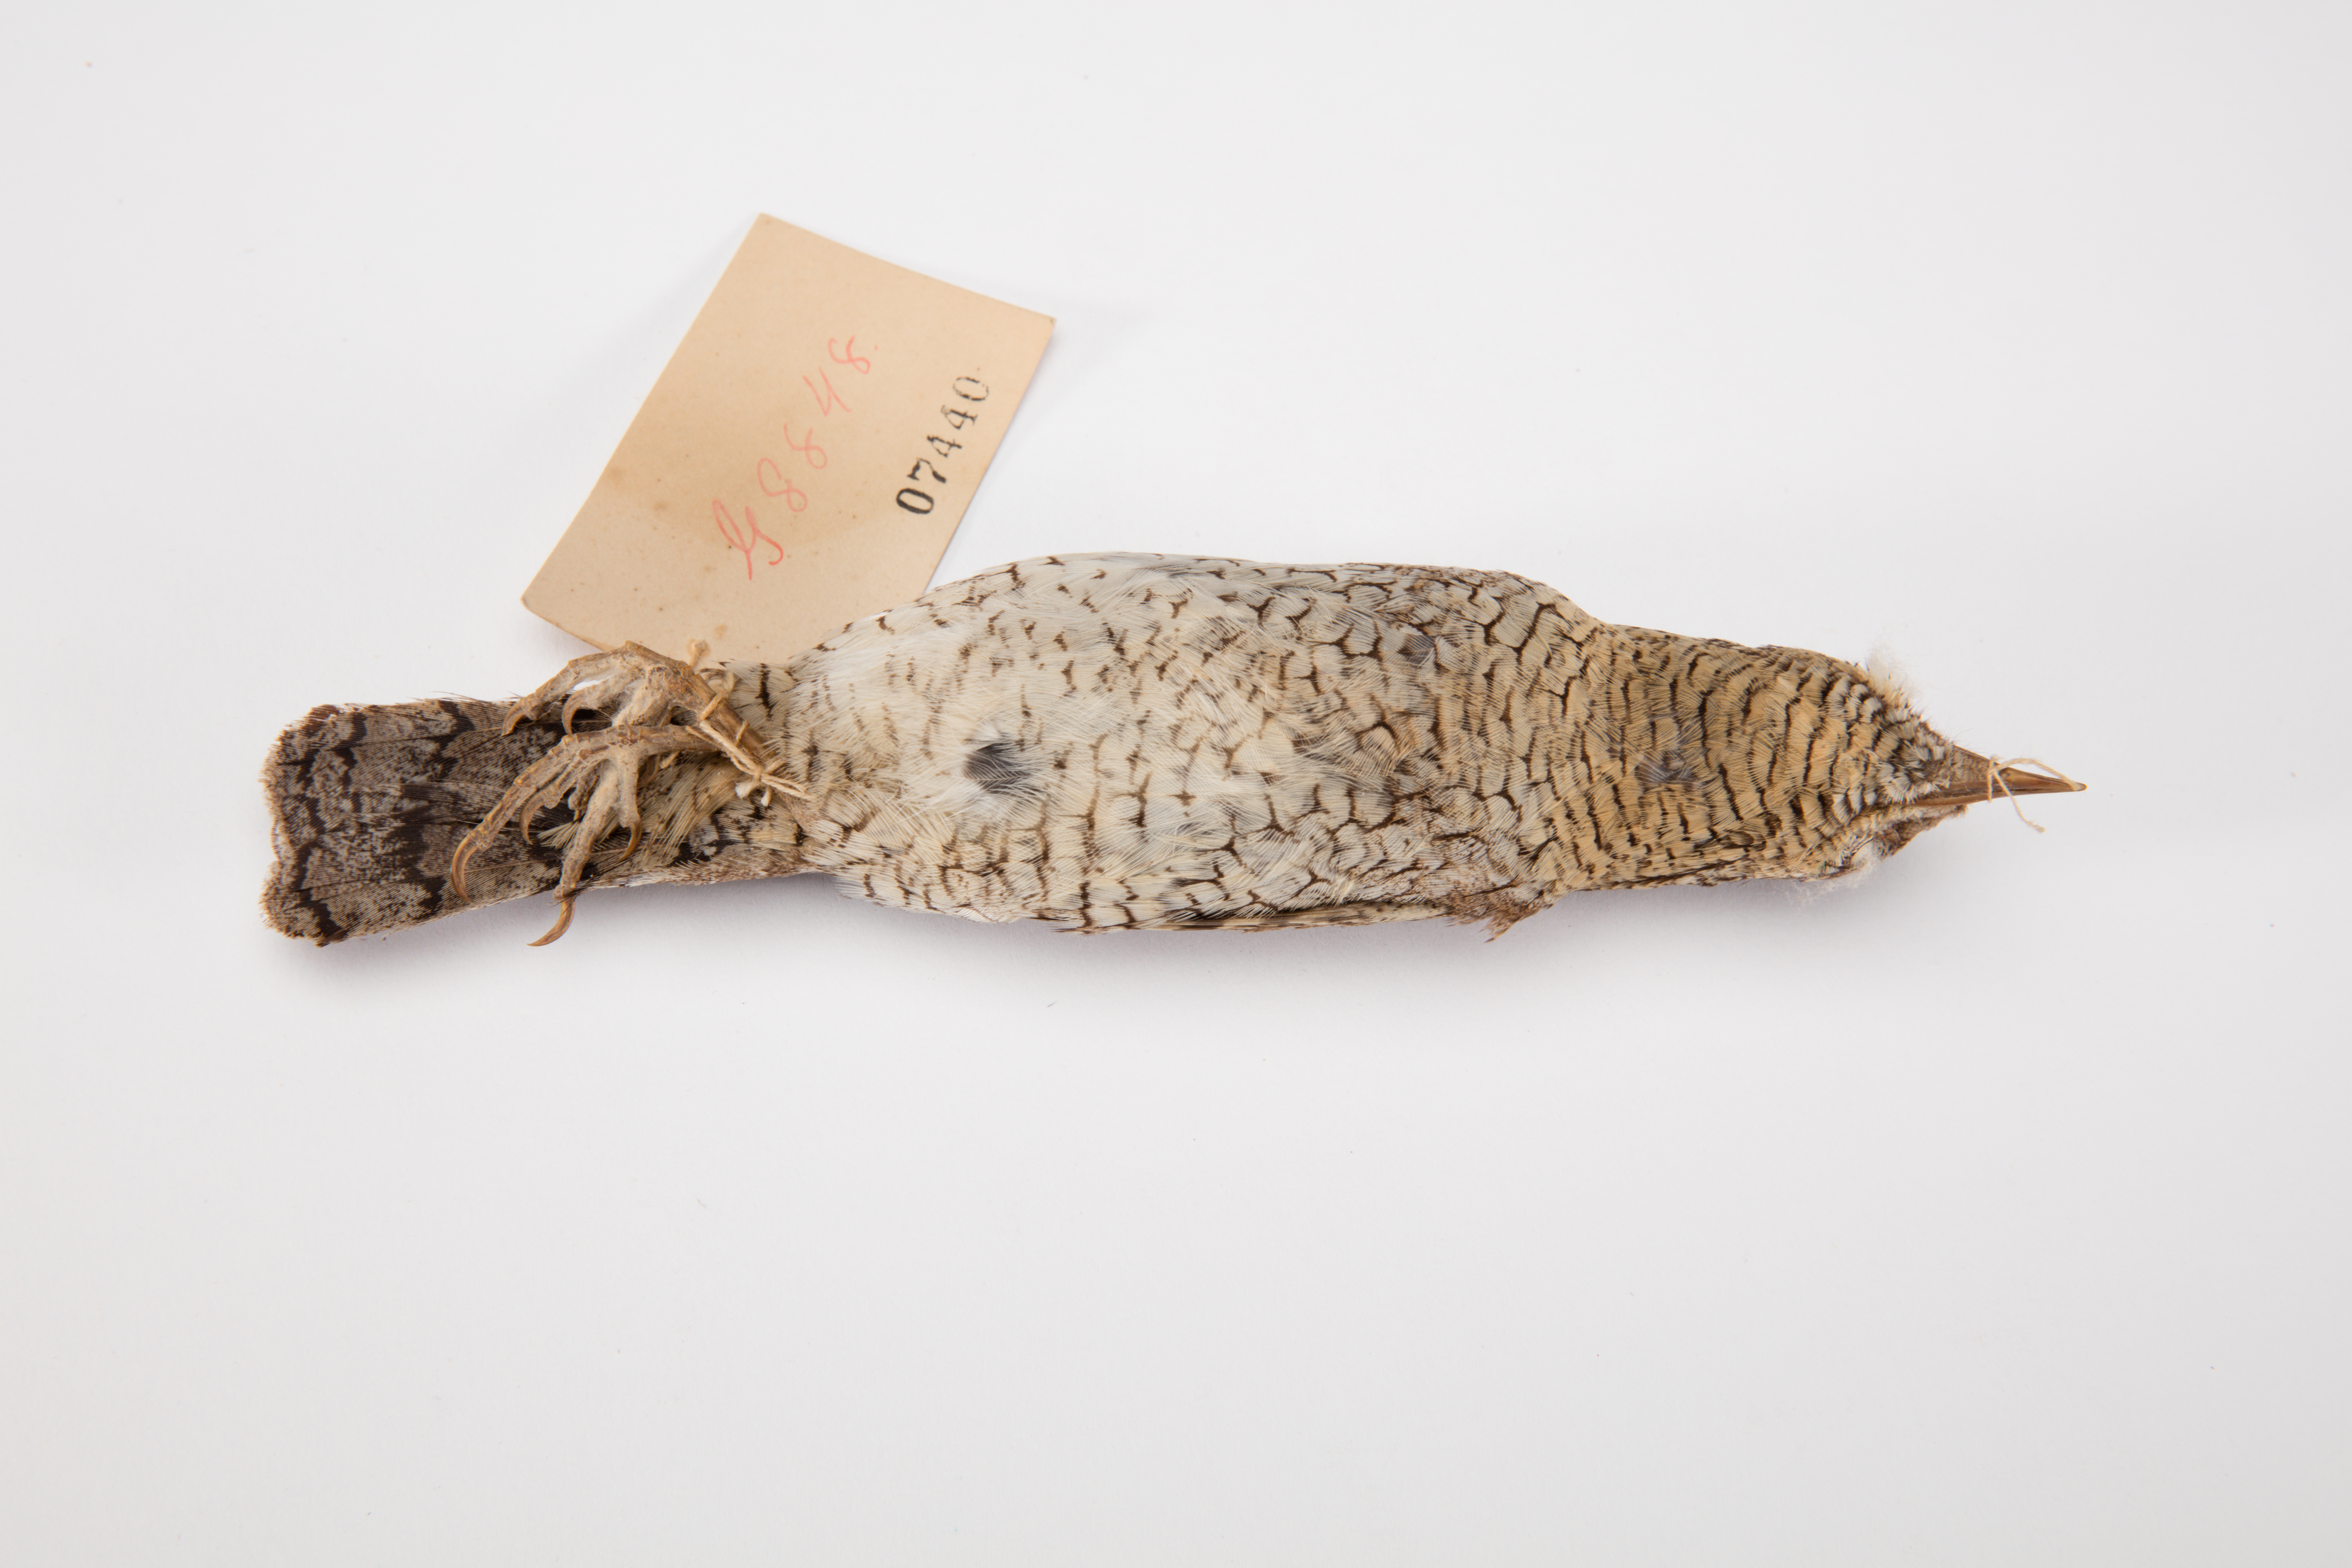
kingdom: Animalia
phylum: Chordata
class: Aves
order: Piciformes
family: Picidae
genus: Jynx
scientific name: Jynx torquilla
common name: Eurasian wryneck
